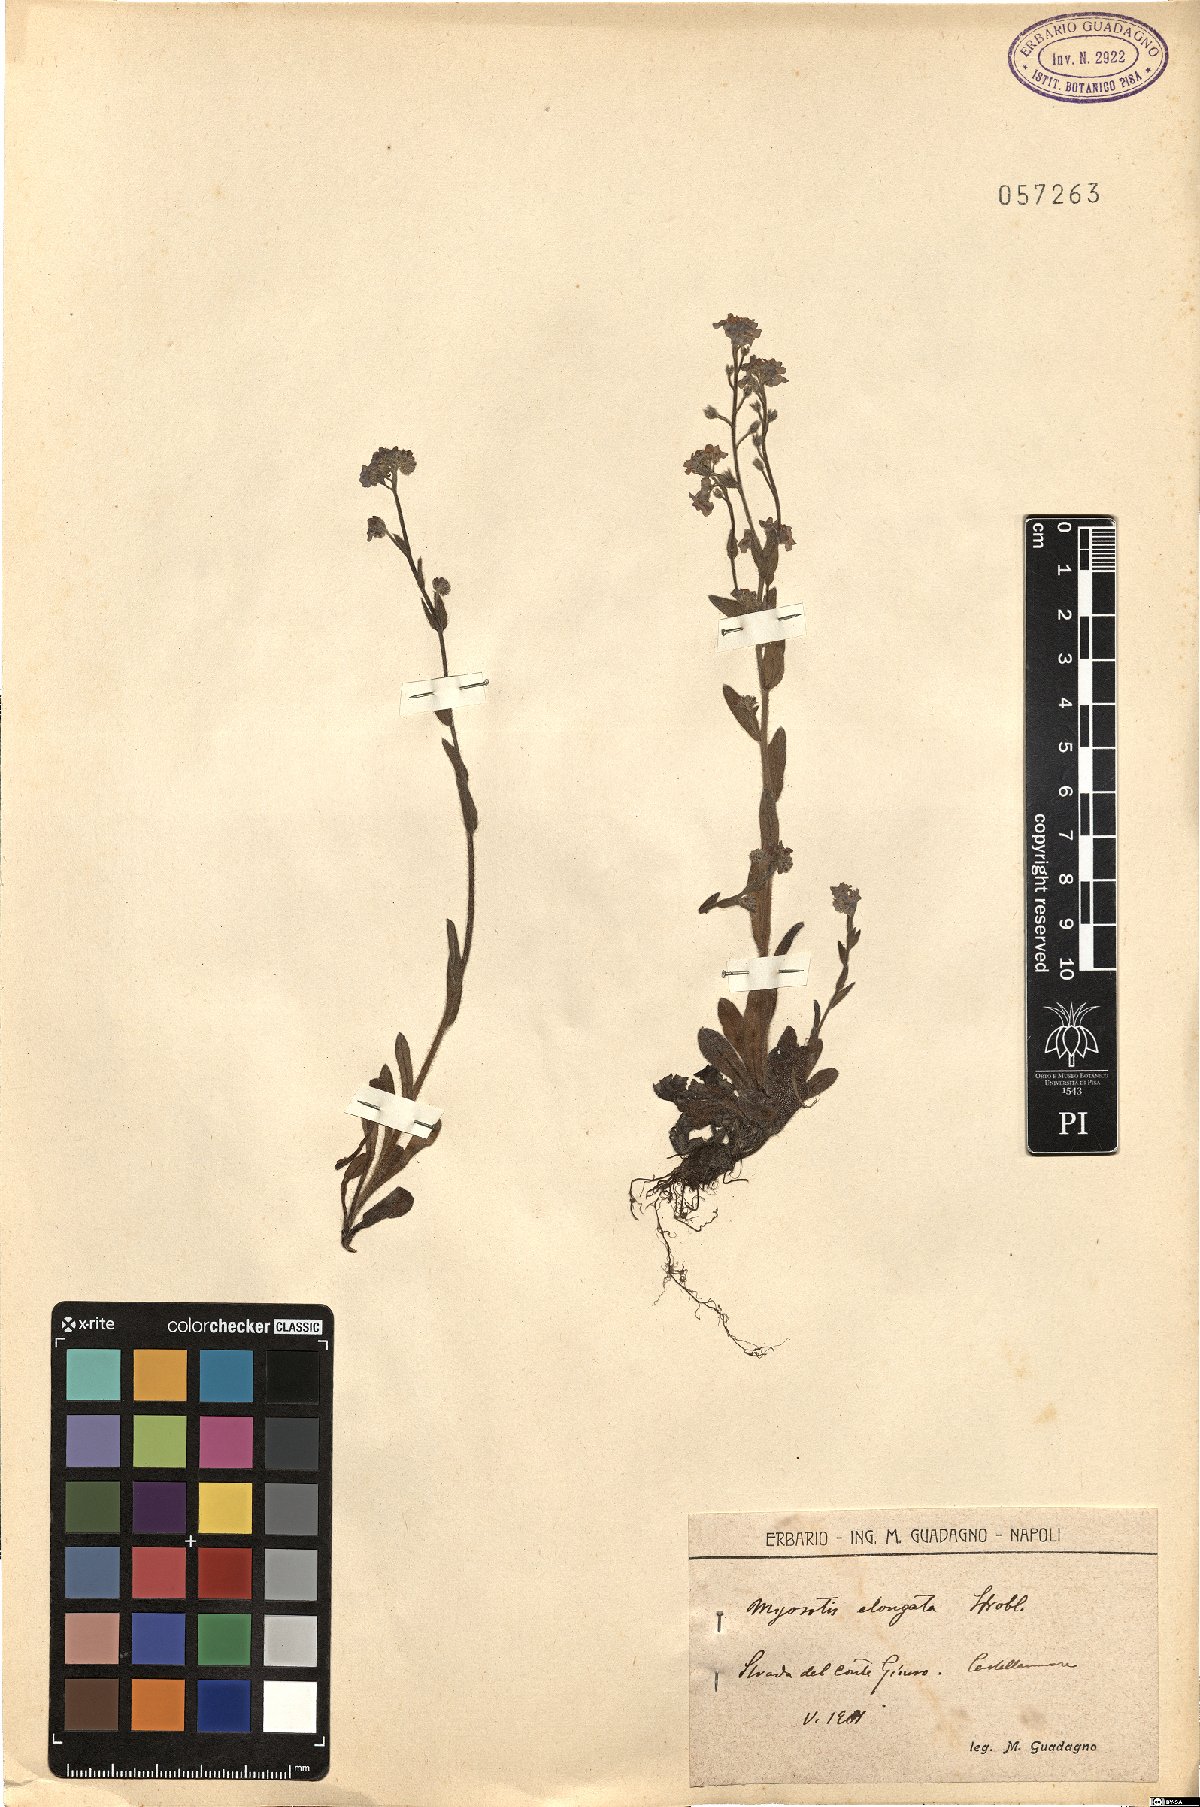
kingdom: Plantae
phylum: Tracheophyta
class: Magnoliopsida
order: Boraginales
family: Boraginaceae
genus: Myosotis
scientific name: Myosotis sylvatica
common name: Wood forget-me-not
